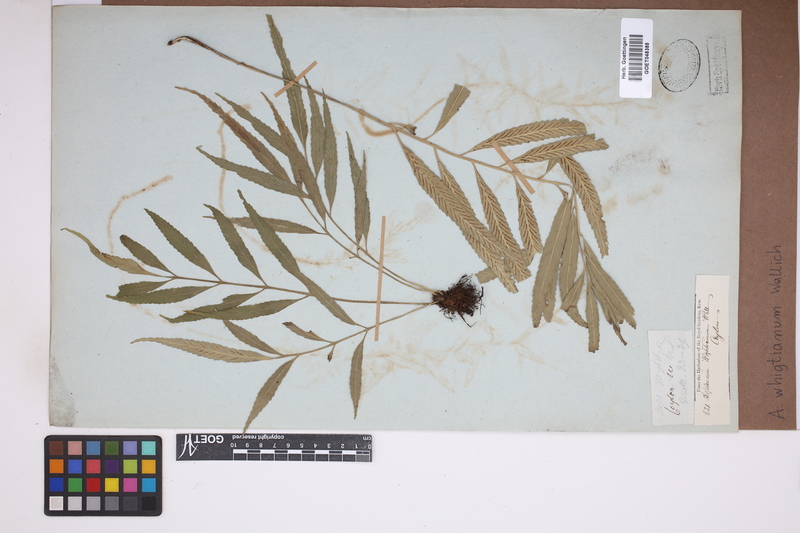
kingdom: Plantae
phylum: Tracheophyta
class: Polypodiopsida
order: Polypodiales
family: Aspleniaceae
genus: Asplenium
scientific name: Asplenium serricula
